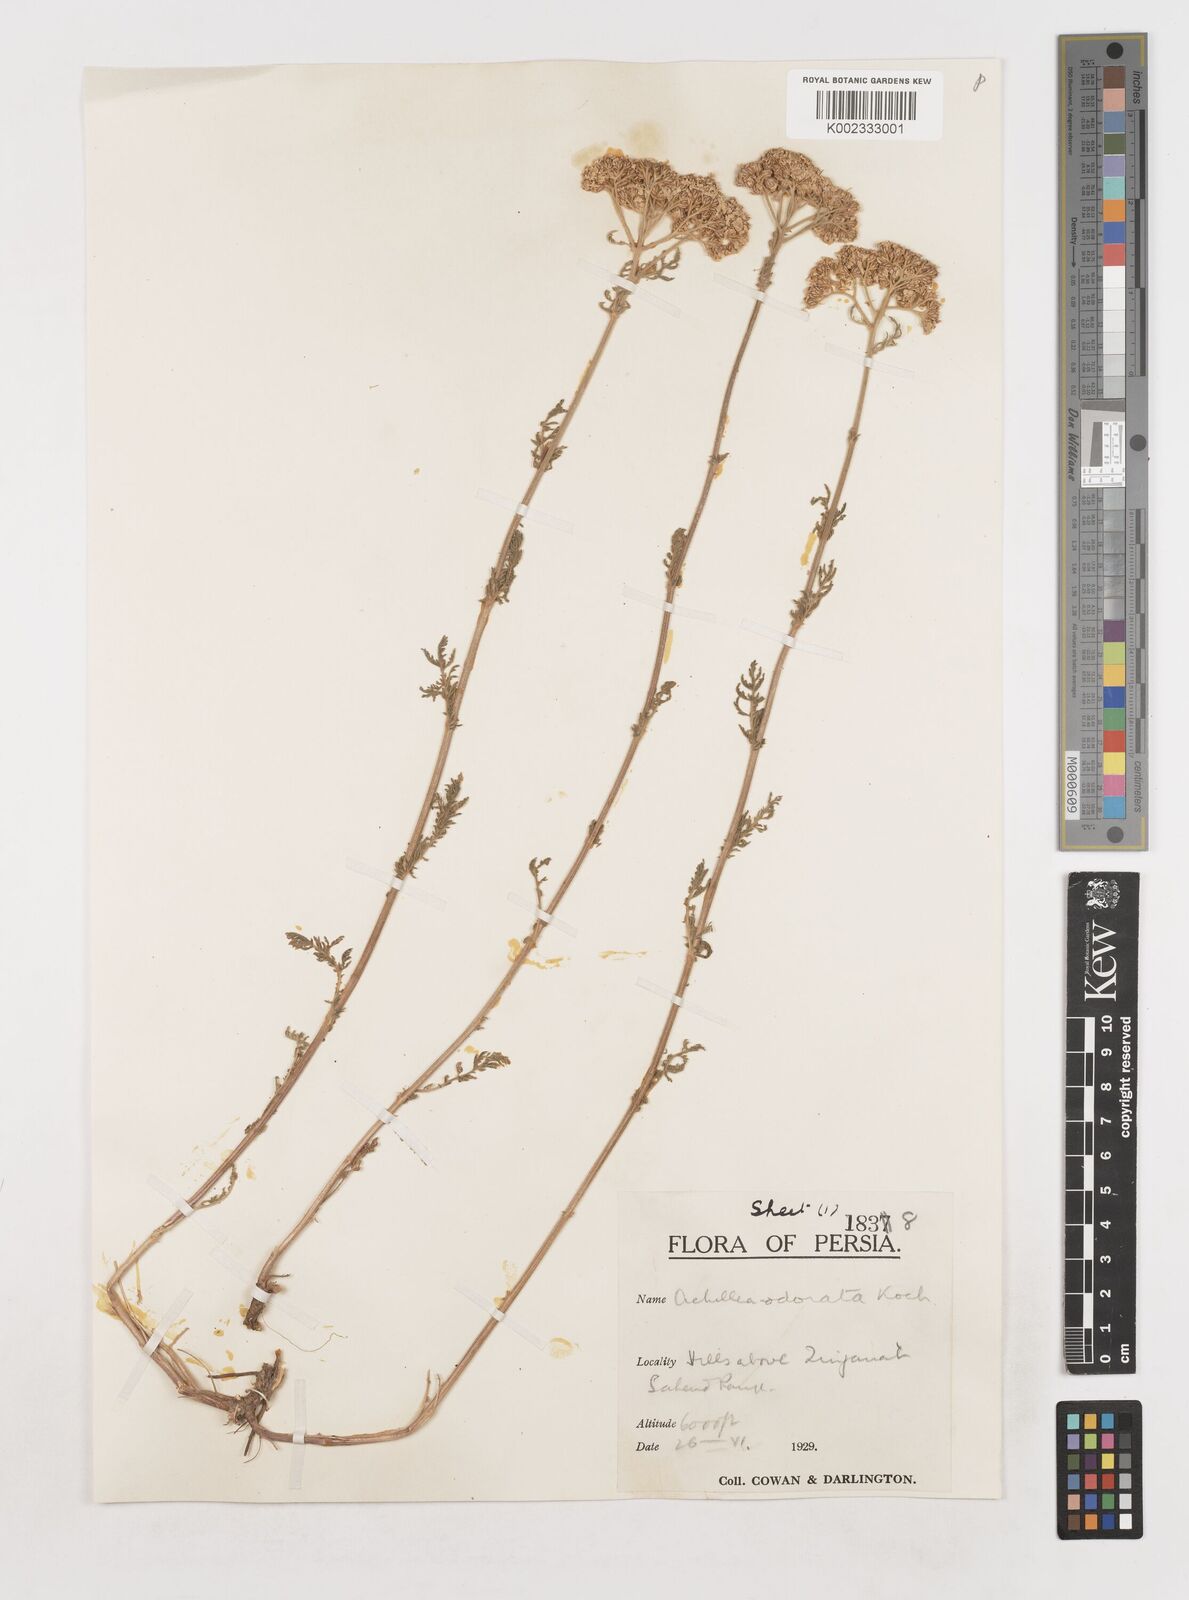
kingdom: Plantae
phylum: Tracheophyta
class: Magnoliopsida
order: Asterales
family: Asteraceae
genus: Achillea
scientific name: Achillea
